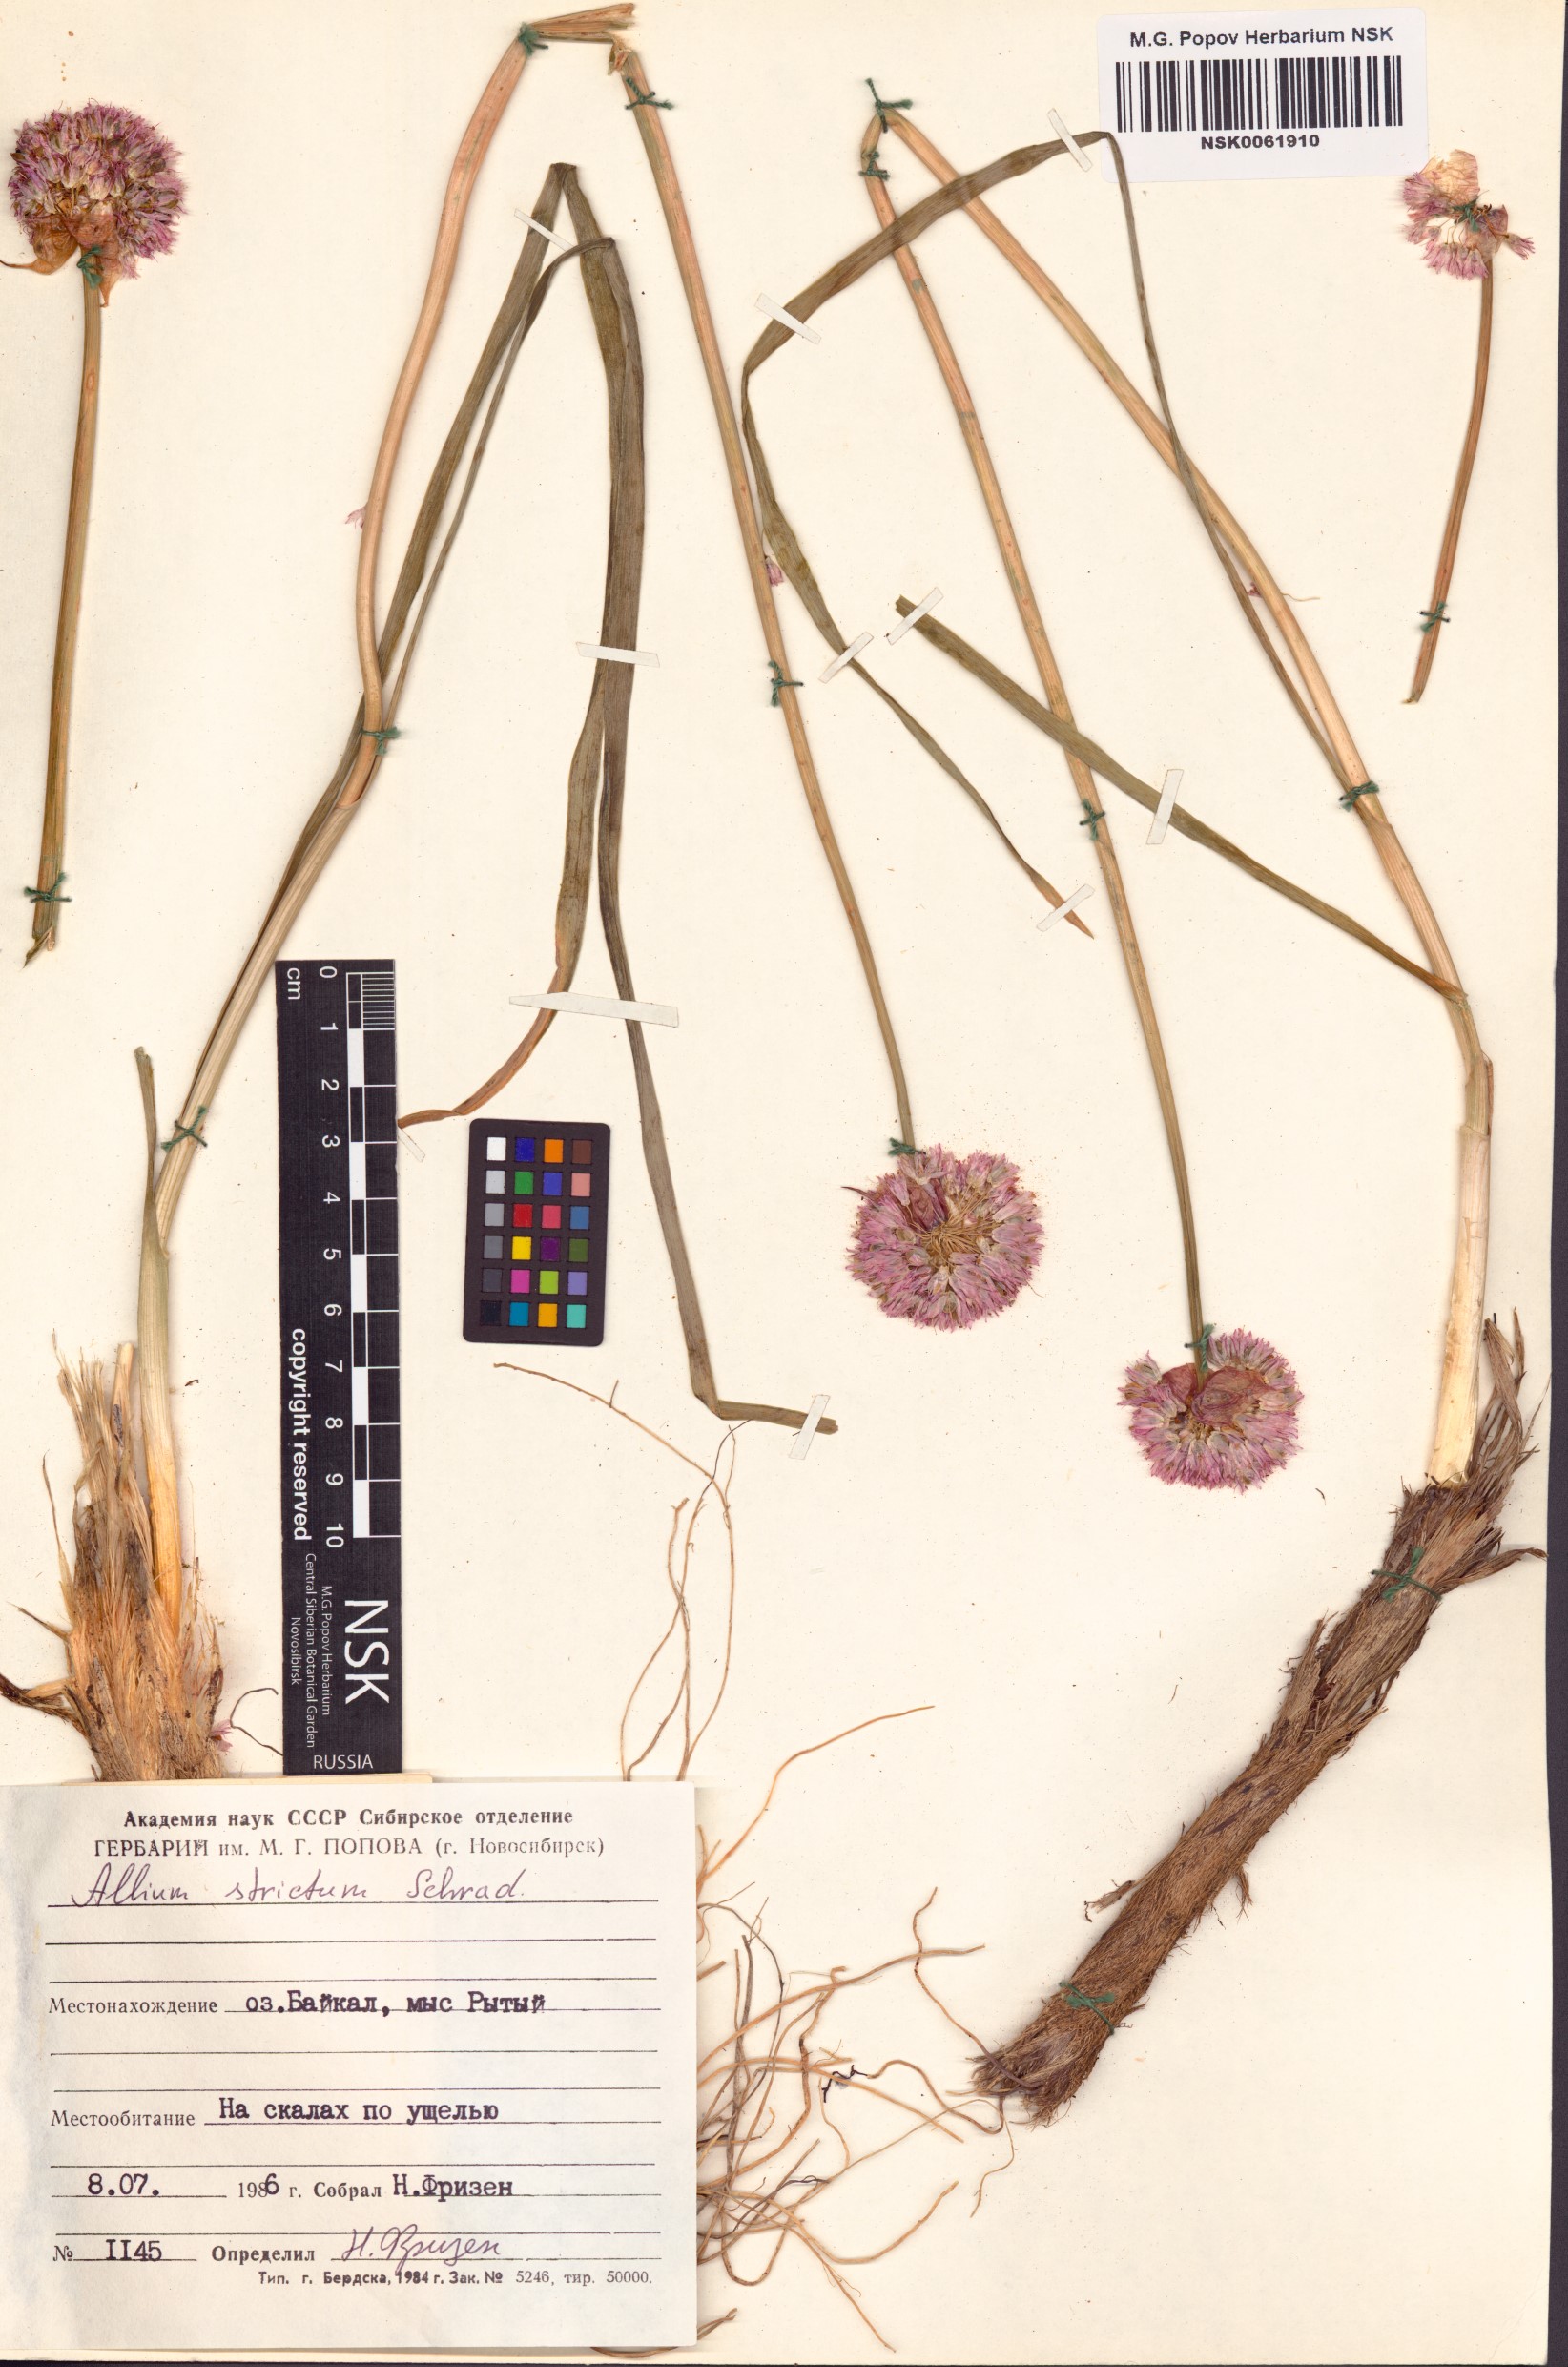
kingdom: Plantae
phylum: Tracheophyta
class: Liliopsida
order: Asparagales
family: Amaryllidaceae
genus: Allium
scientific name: Allium strictum
